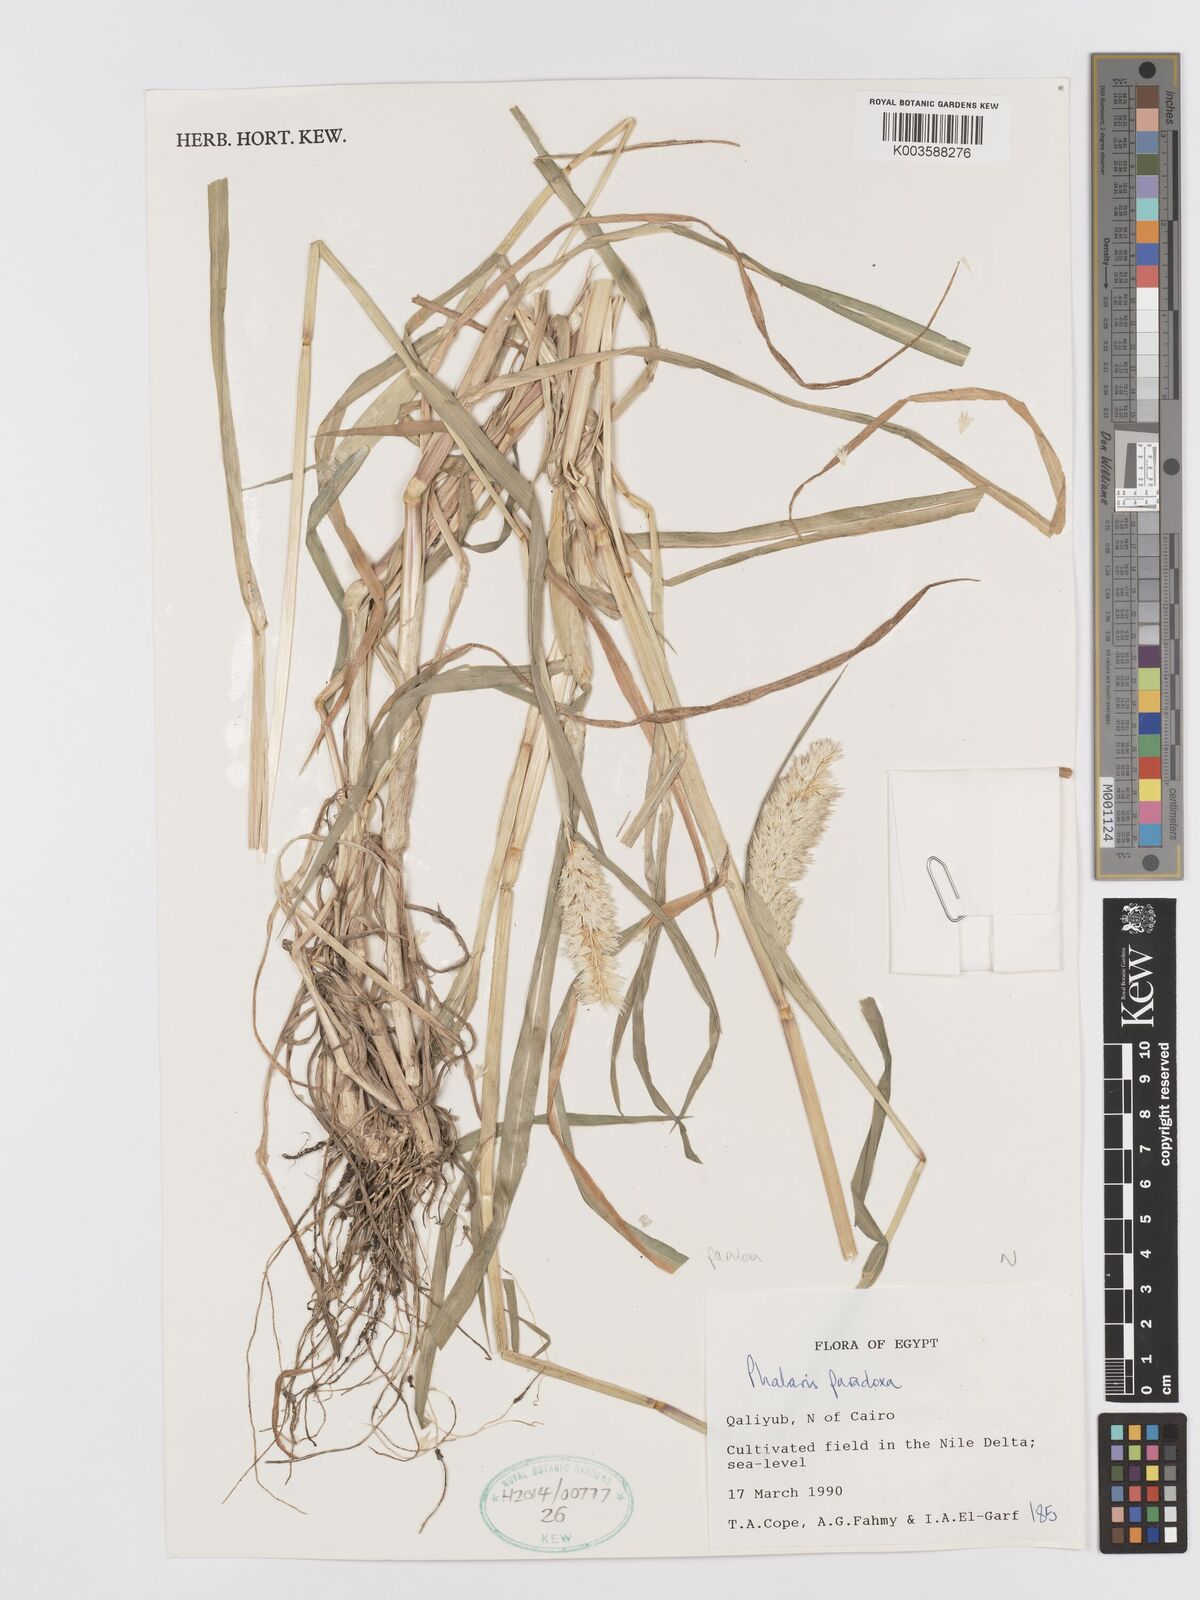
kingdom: Plantae
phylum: Tracheophyta
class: Liliopsida
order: Poales
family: Poaceae
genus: Phalaris
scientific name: Phalaris paradoxa
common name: Awned canary-grass
